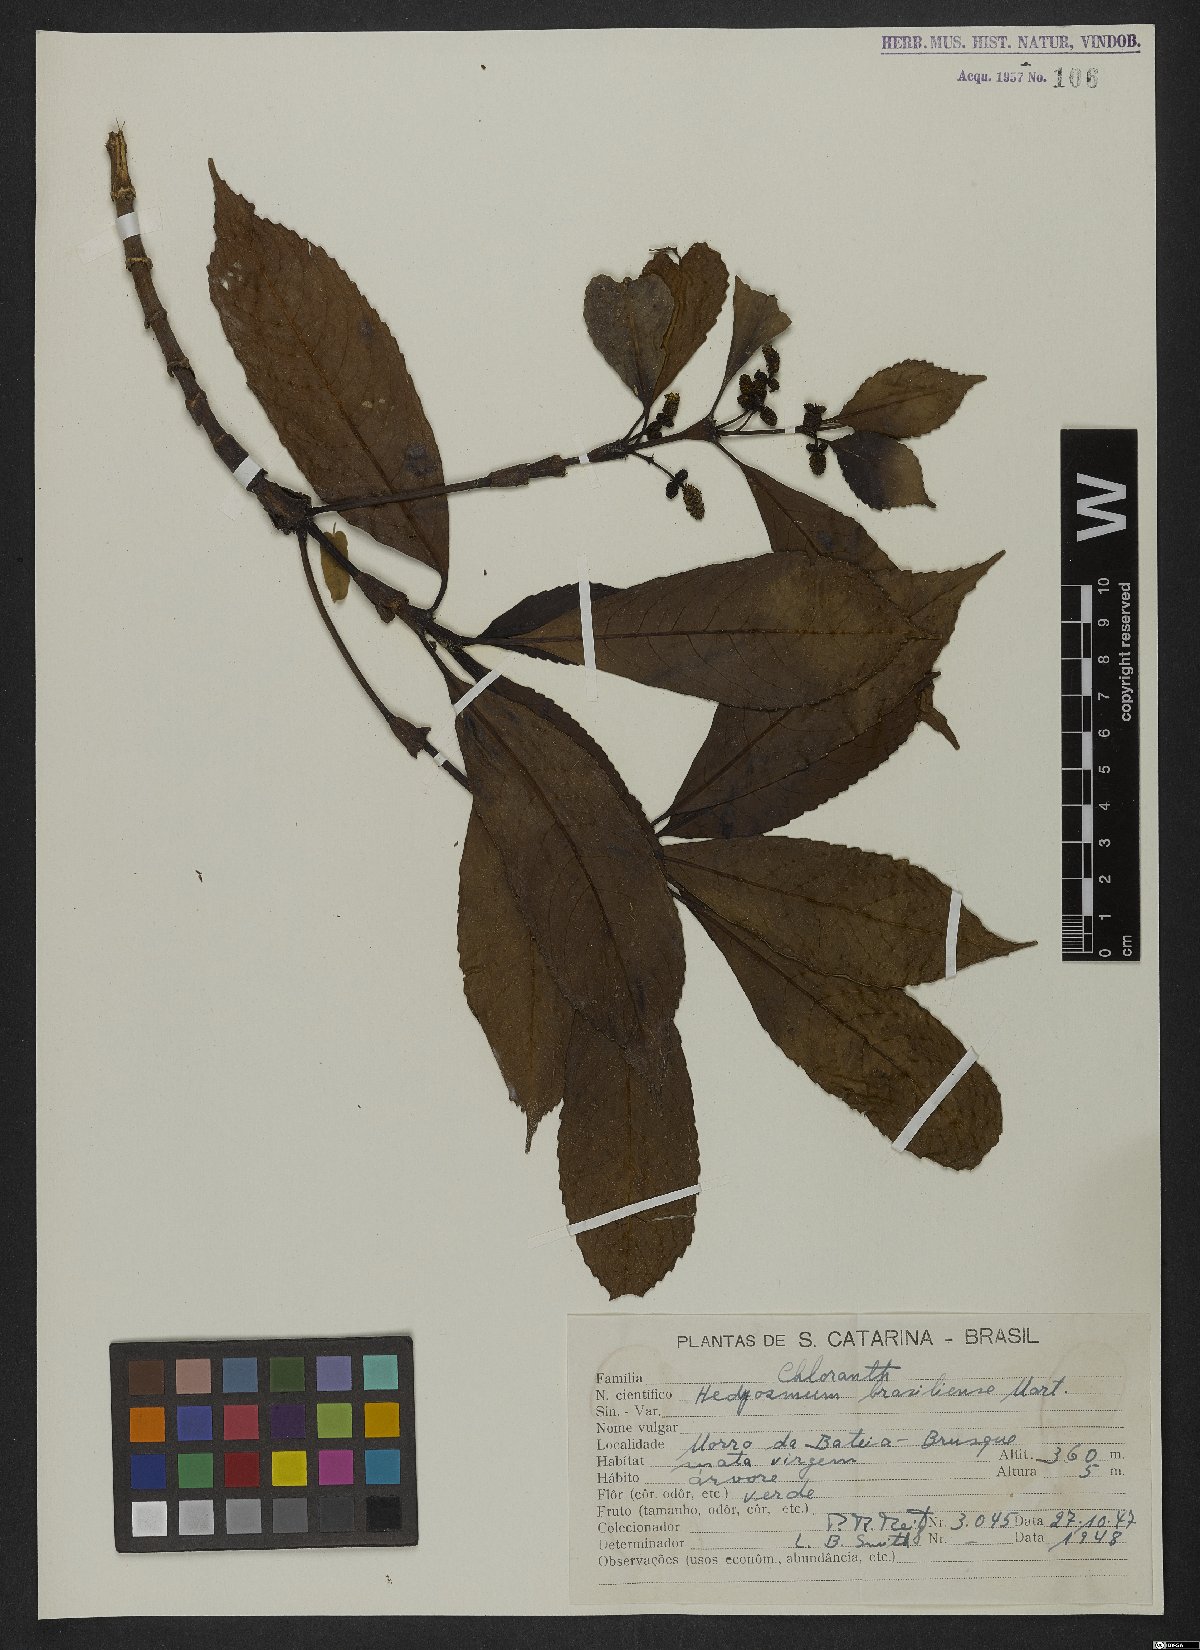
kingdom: Plantae
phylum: Tracheophyta
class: Magnoliopsida
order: Chloranthales
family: Chloranthaceae
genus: Hedyosmum
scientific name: Hedyosmum brasiliense
